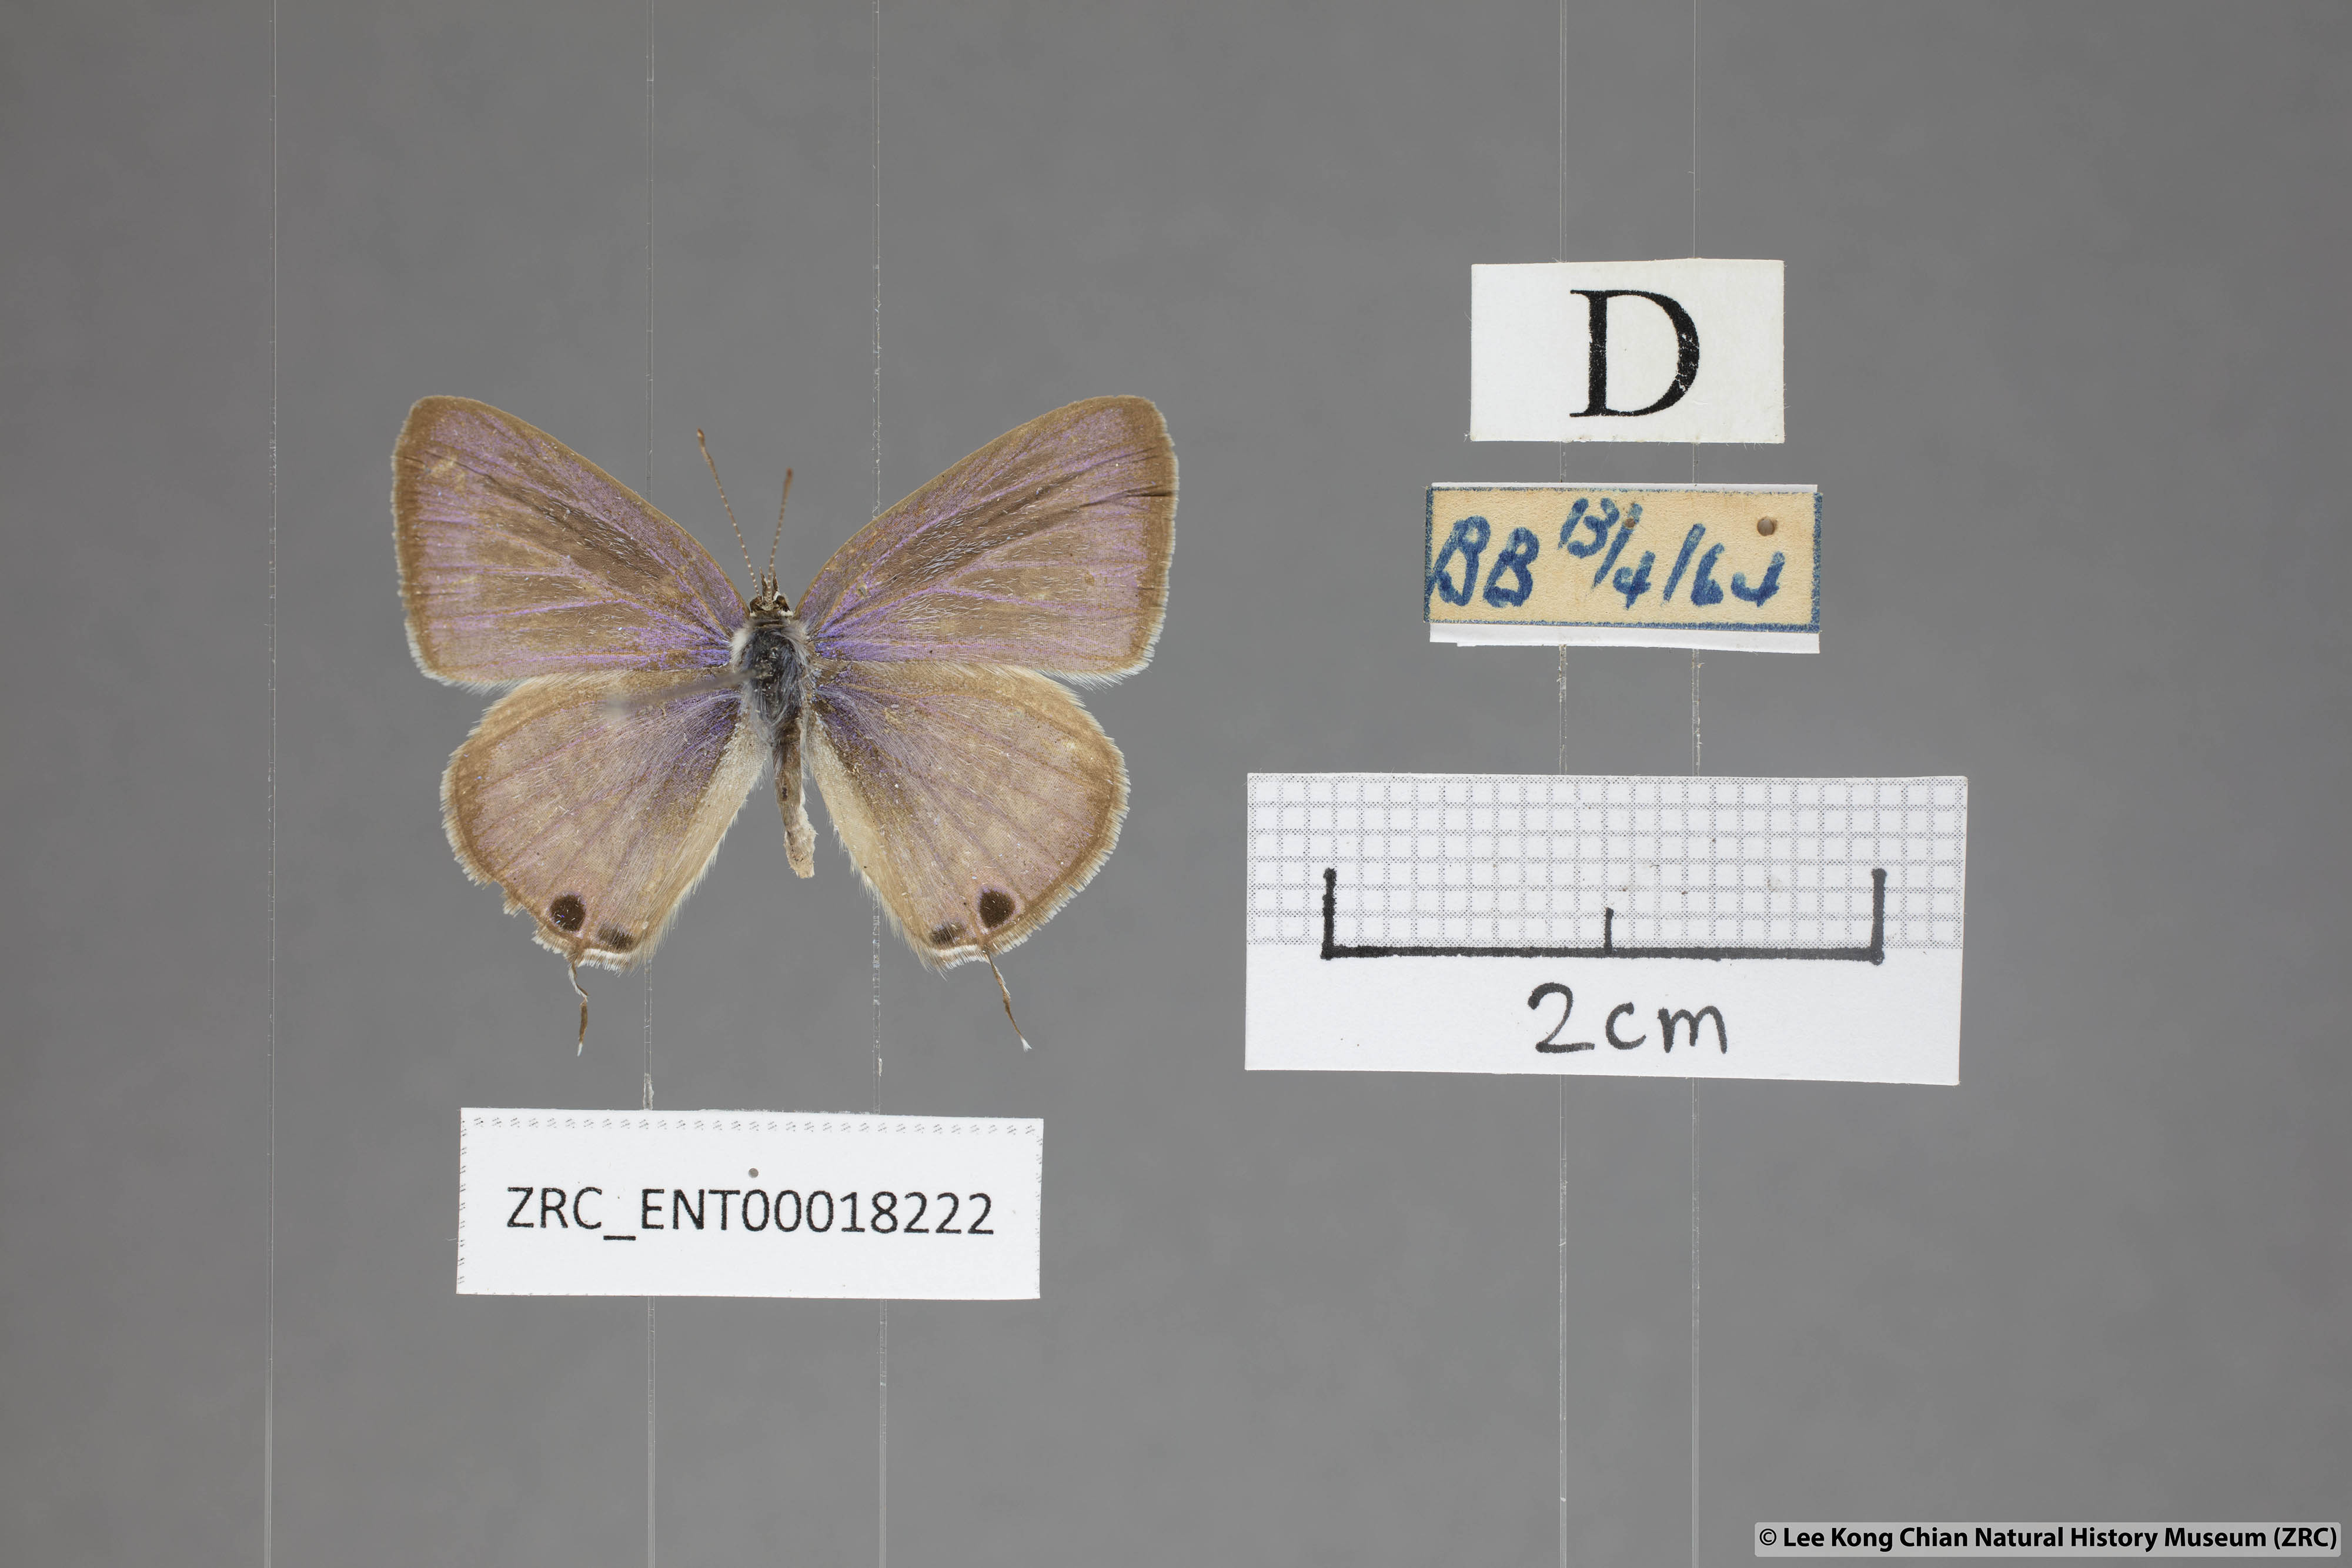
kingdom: Animalia
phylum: Arthropoda
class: Insecta
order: Lepidoptera
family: Lycaenidae
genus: Lampides
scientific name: Lampides boeticus
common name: Long-tailed blue
